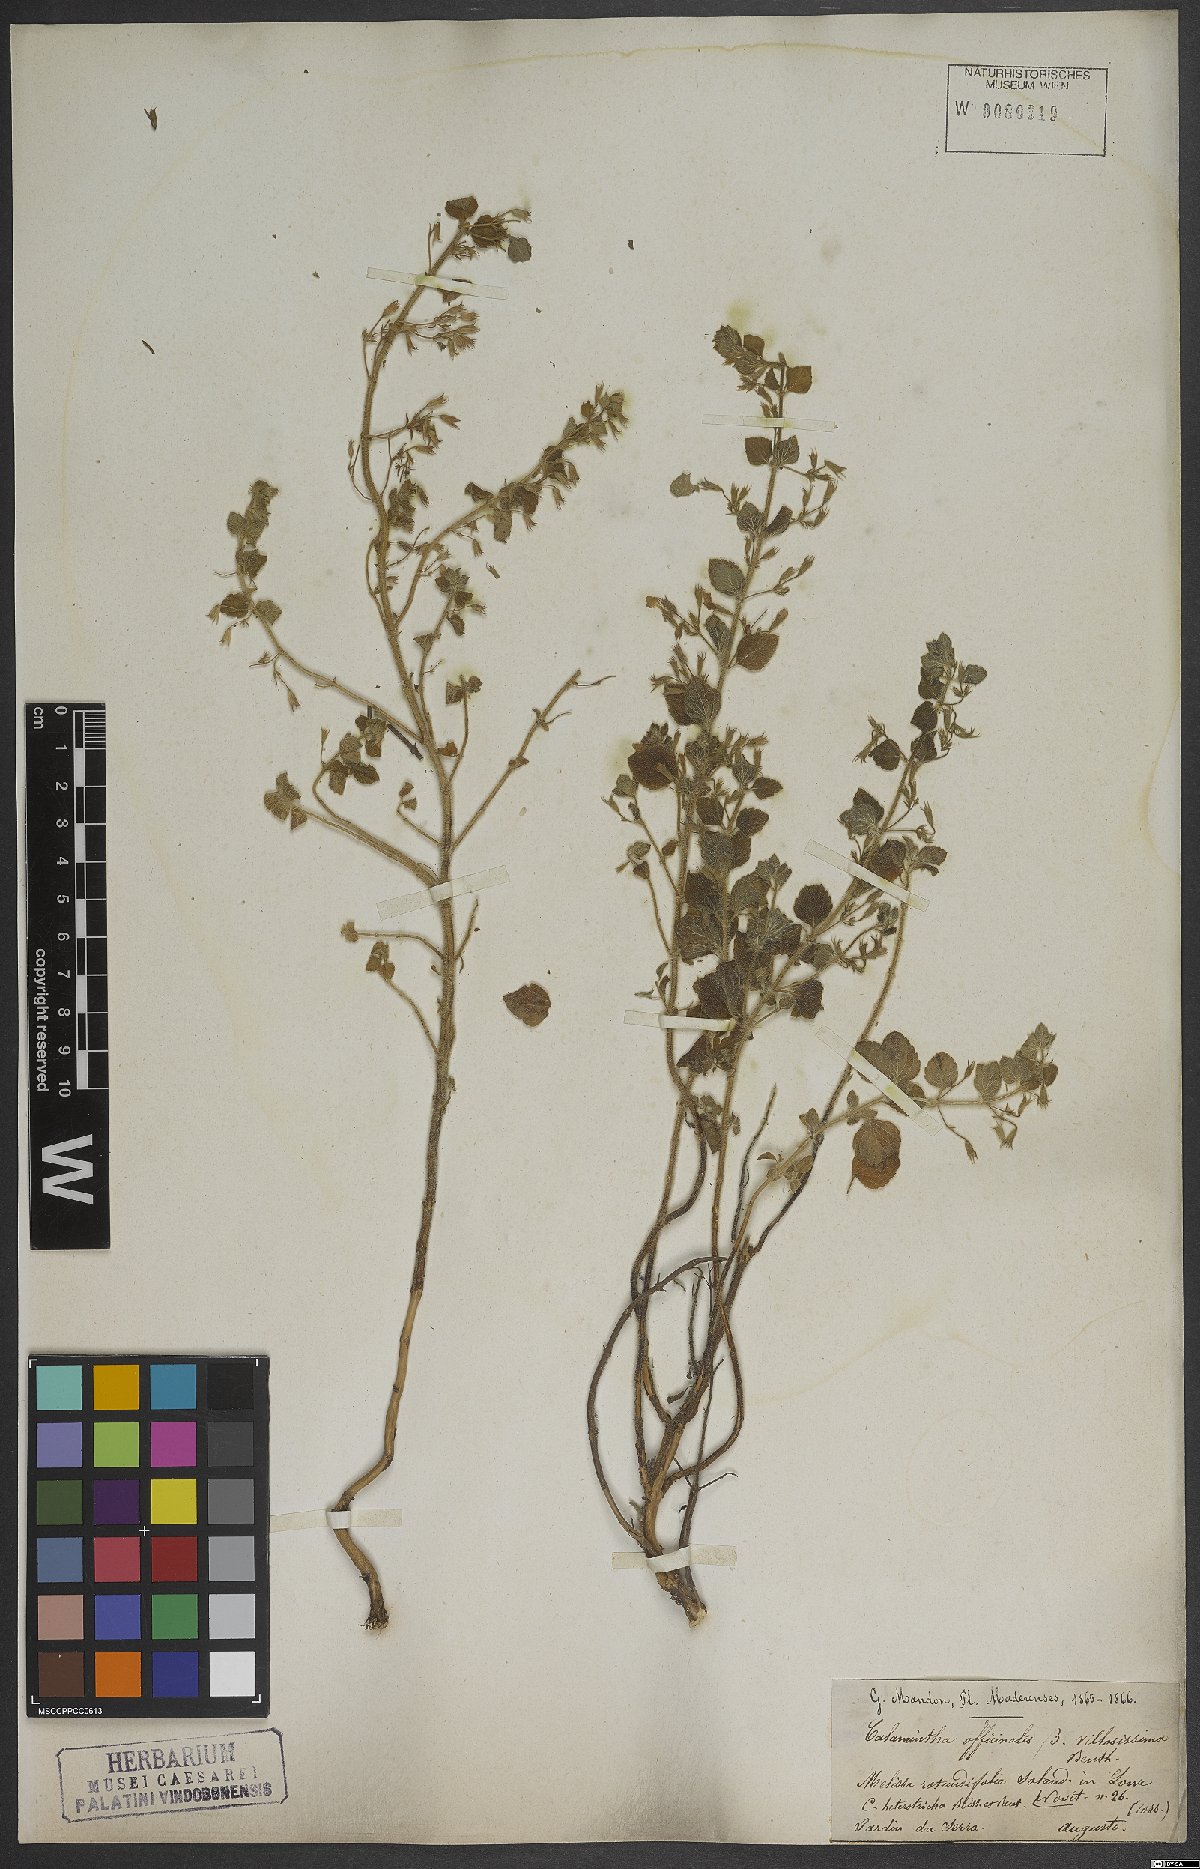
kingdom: Plantae
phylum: Tracheophyta
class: Magnoliopsida
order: Lamiales
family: Lamiaceae
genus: Clinopodium
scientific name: Clinopodium heterotrichum
